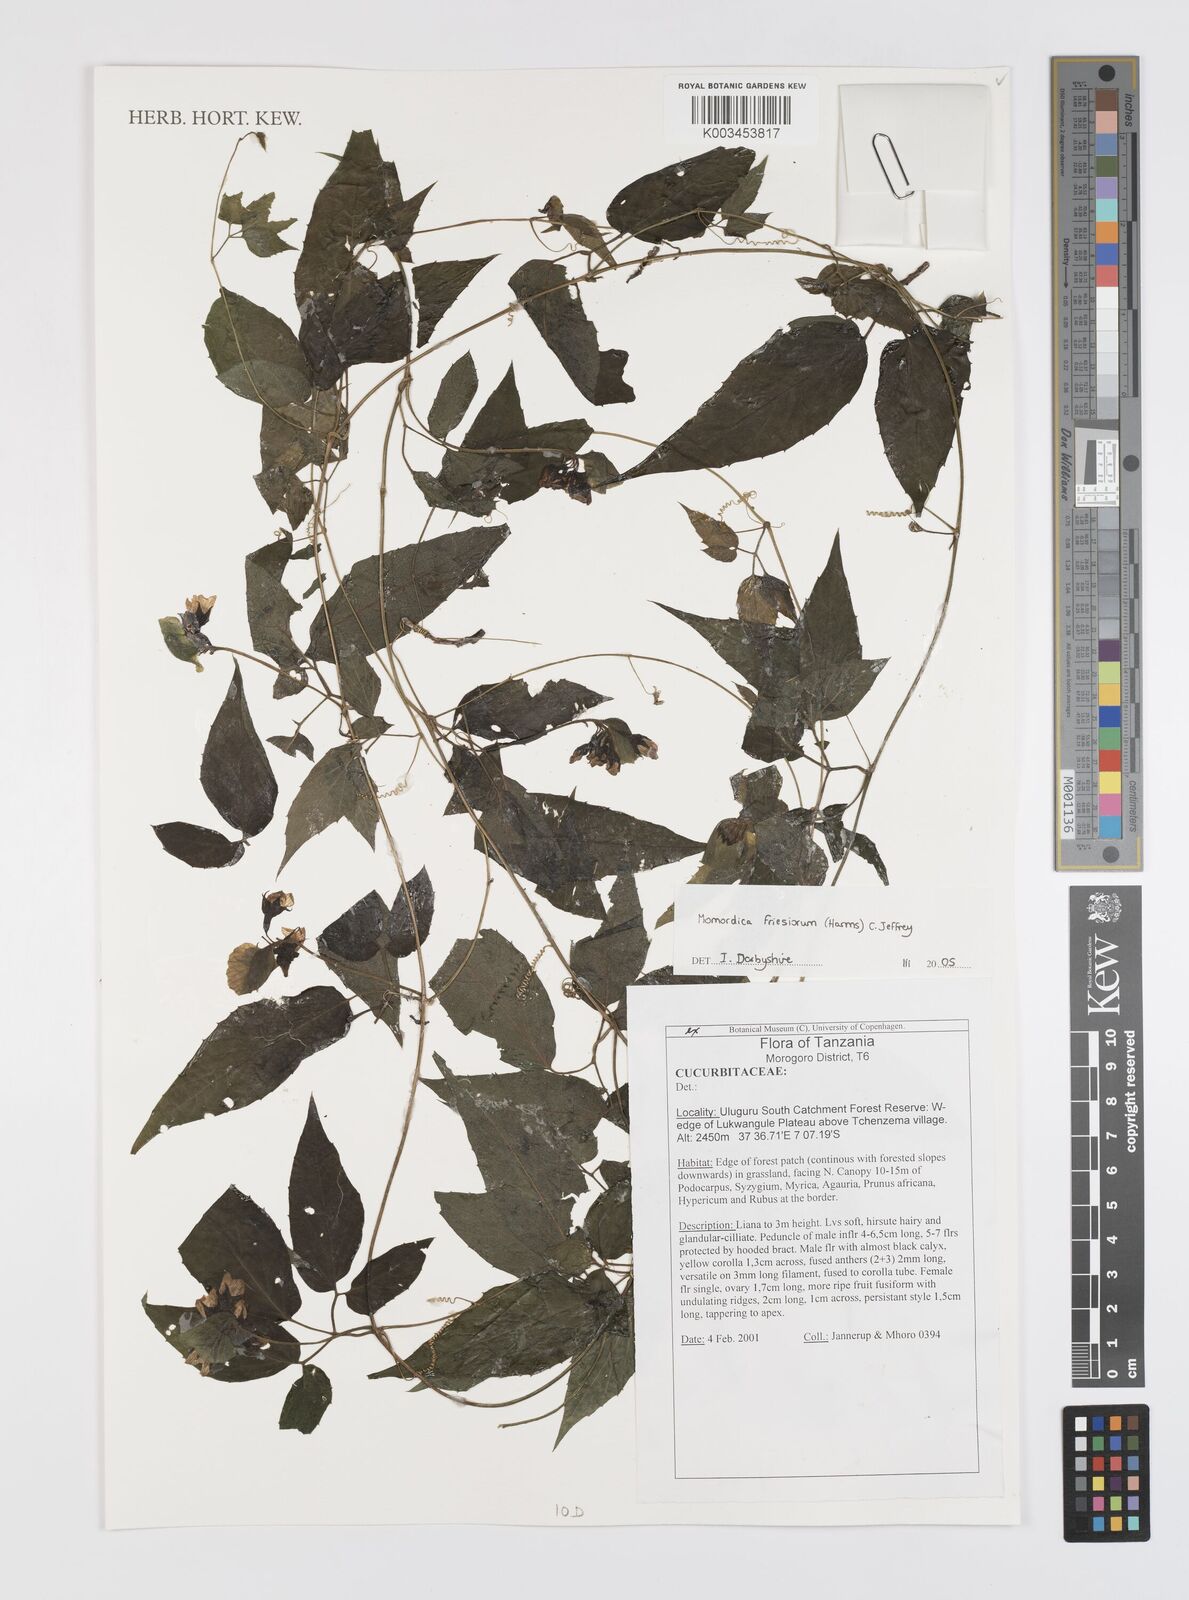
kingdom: Plantae
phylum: Tracheophyta
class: Magnoliopsida
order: Cucurbitales
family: Cucurbitaceae
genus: Momordica
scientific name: Momordica friesiorum
